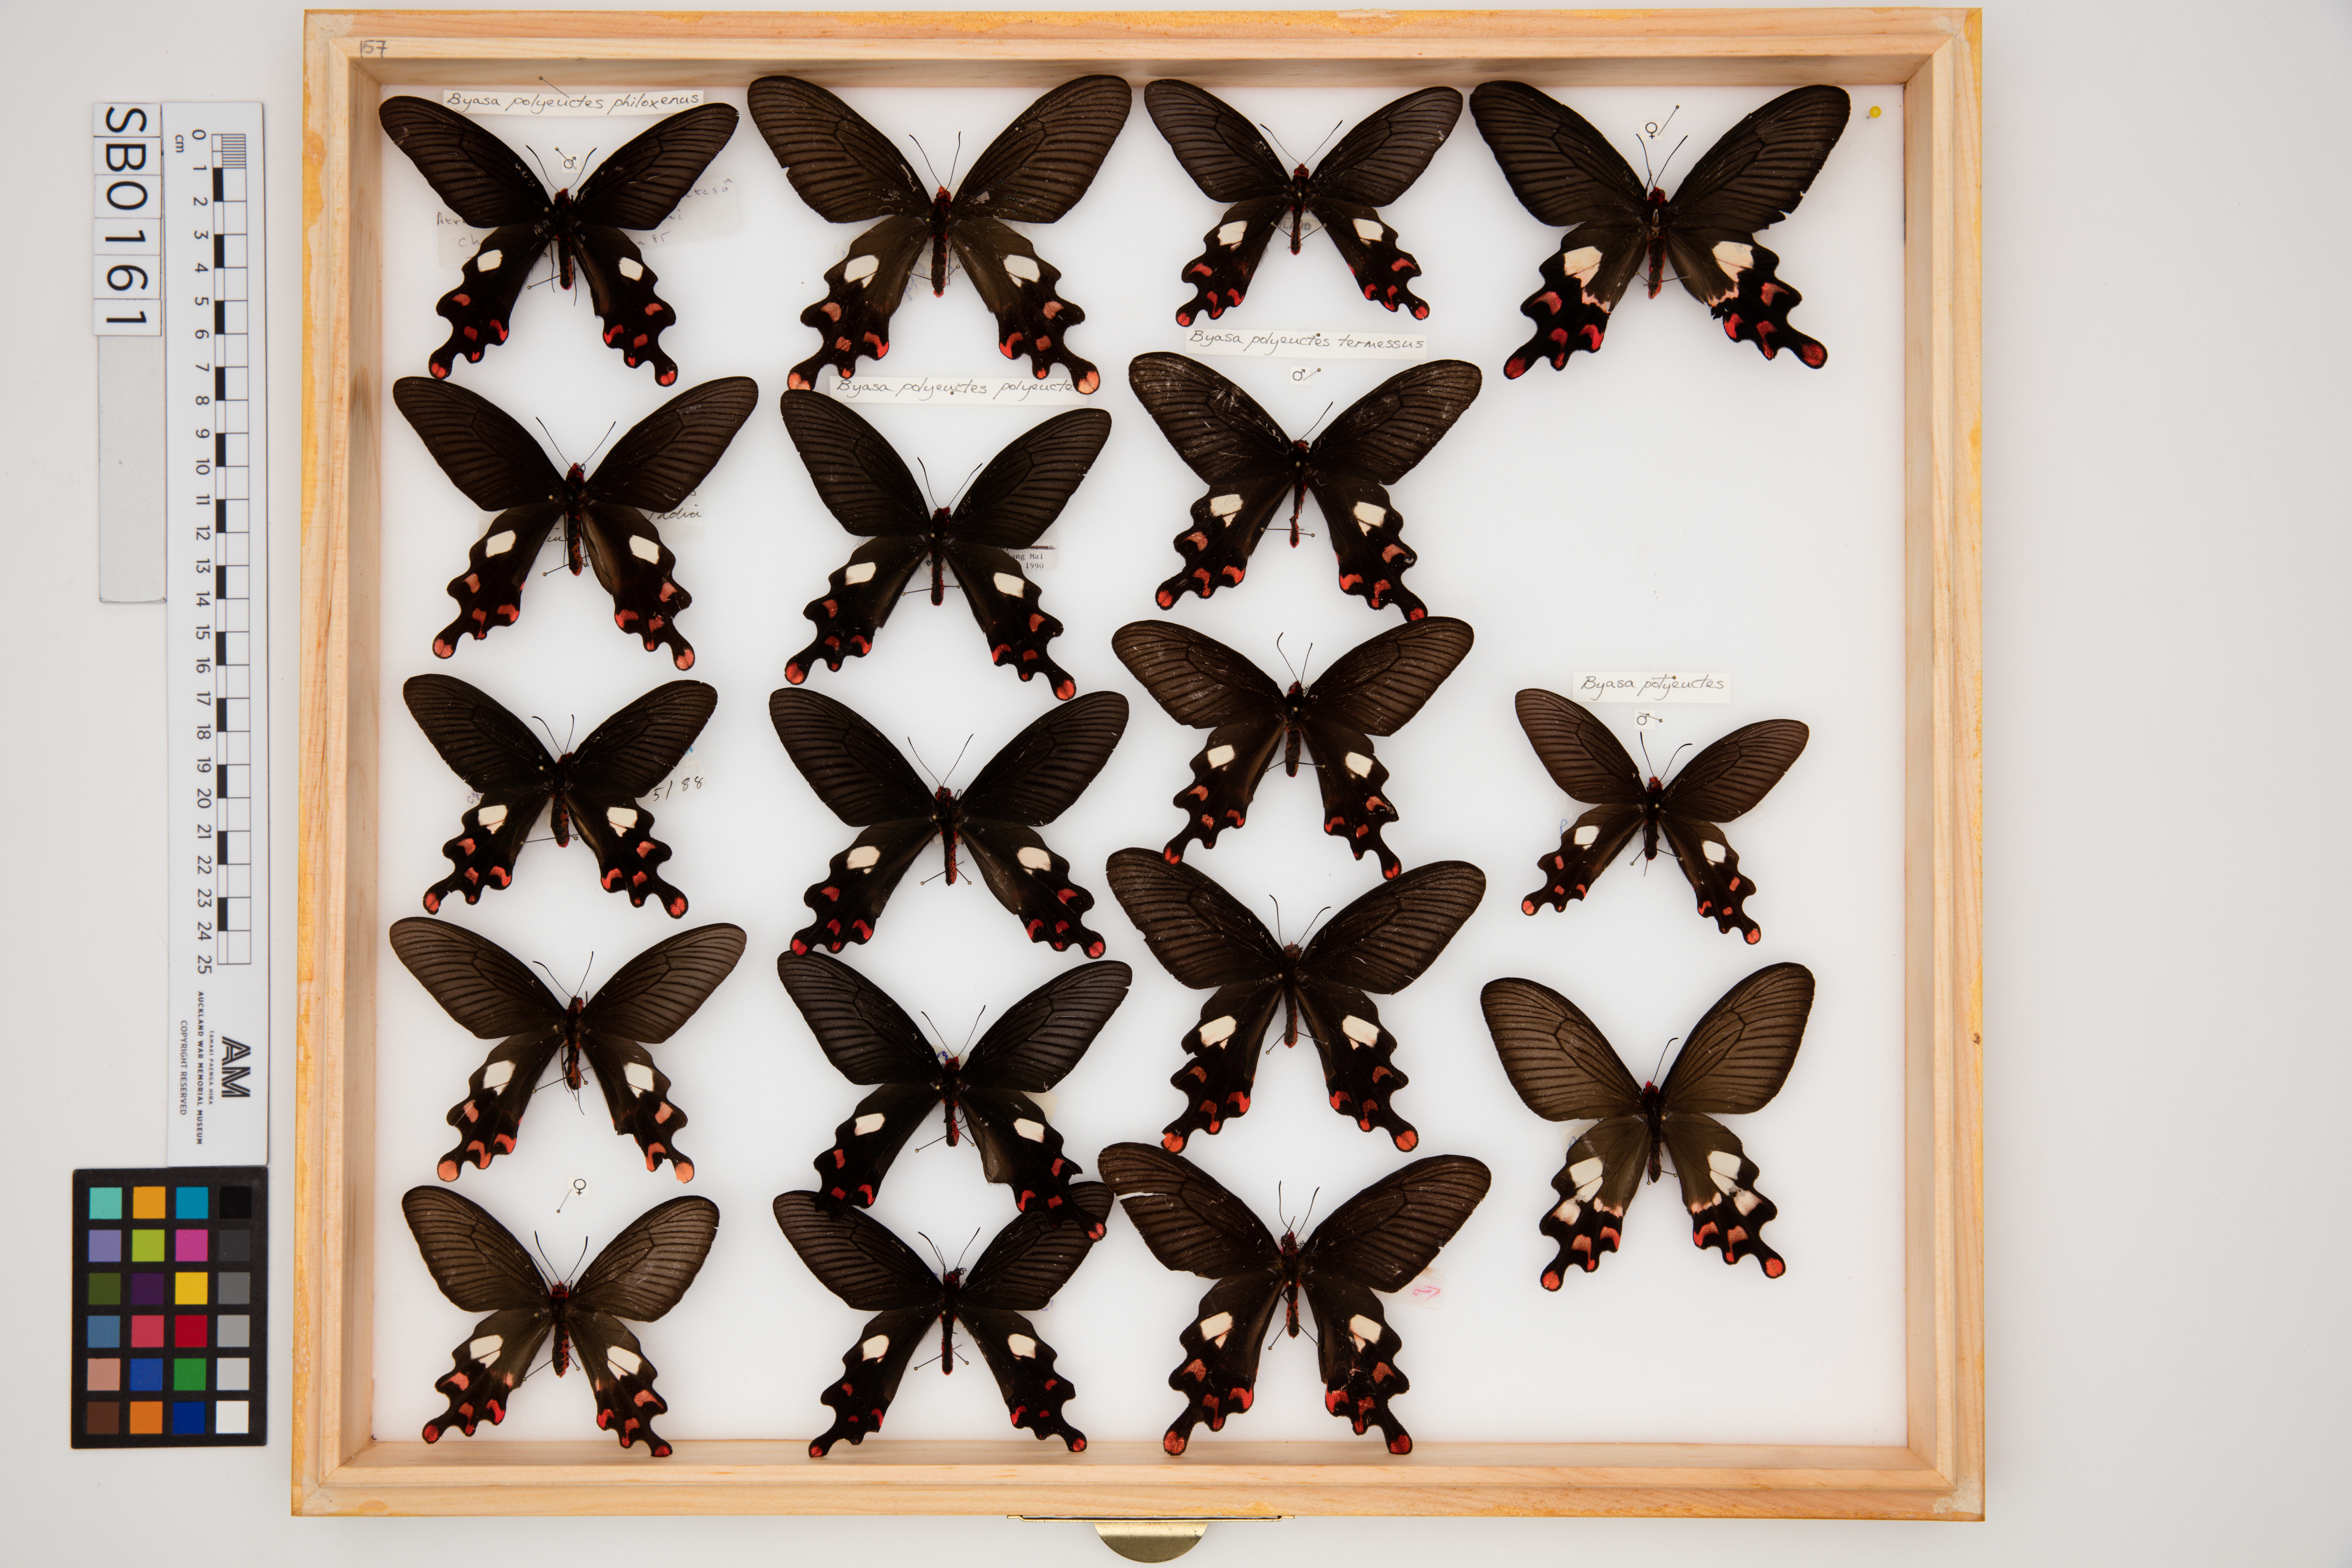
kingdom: Animalia
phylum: Arthropoda
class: Insecta
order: Lepidoptera
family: Papilionidae
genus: Byasa
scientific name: Byasa polyeuctes
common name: Common windmill
